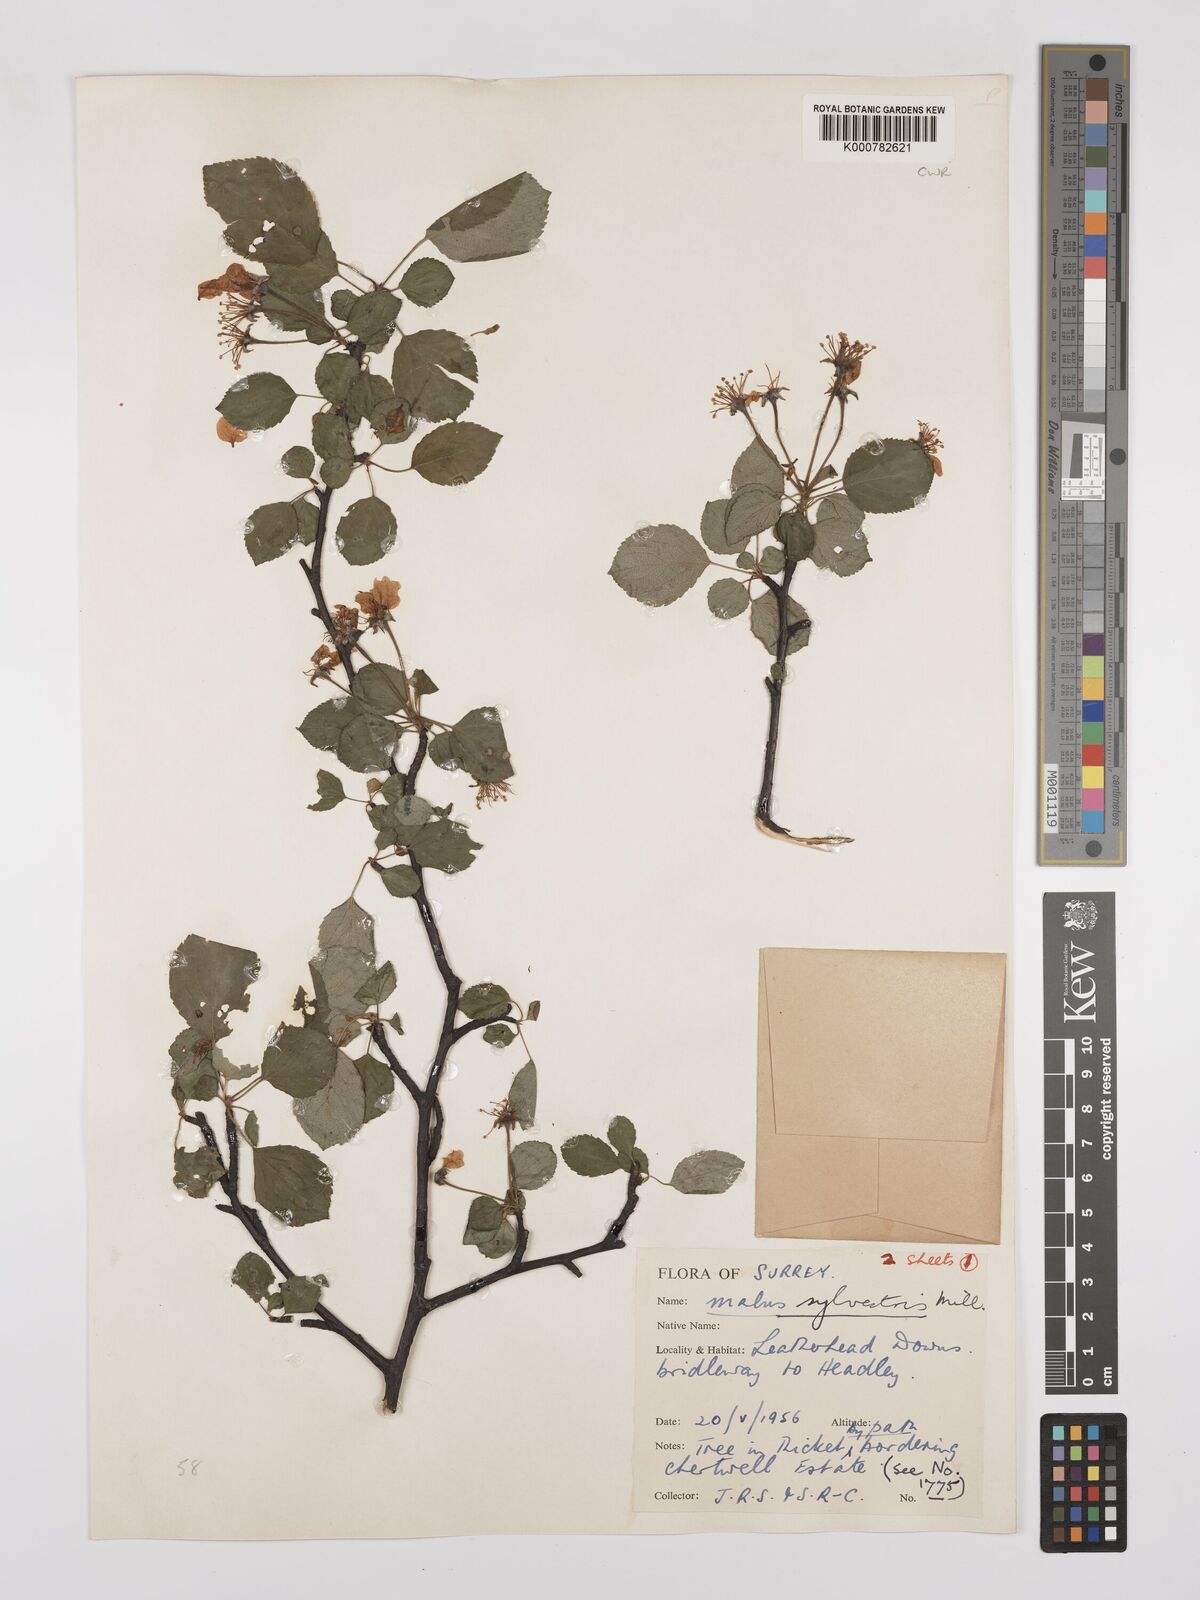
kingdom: Plantae
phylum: Tracheophyta
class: Magnoliopsida
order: Rosales
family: Rosaceae
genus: Malus
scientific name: Malus sylvestris
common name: Crab apple
